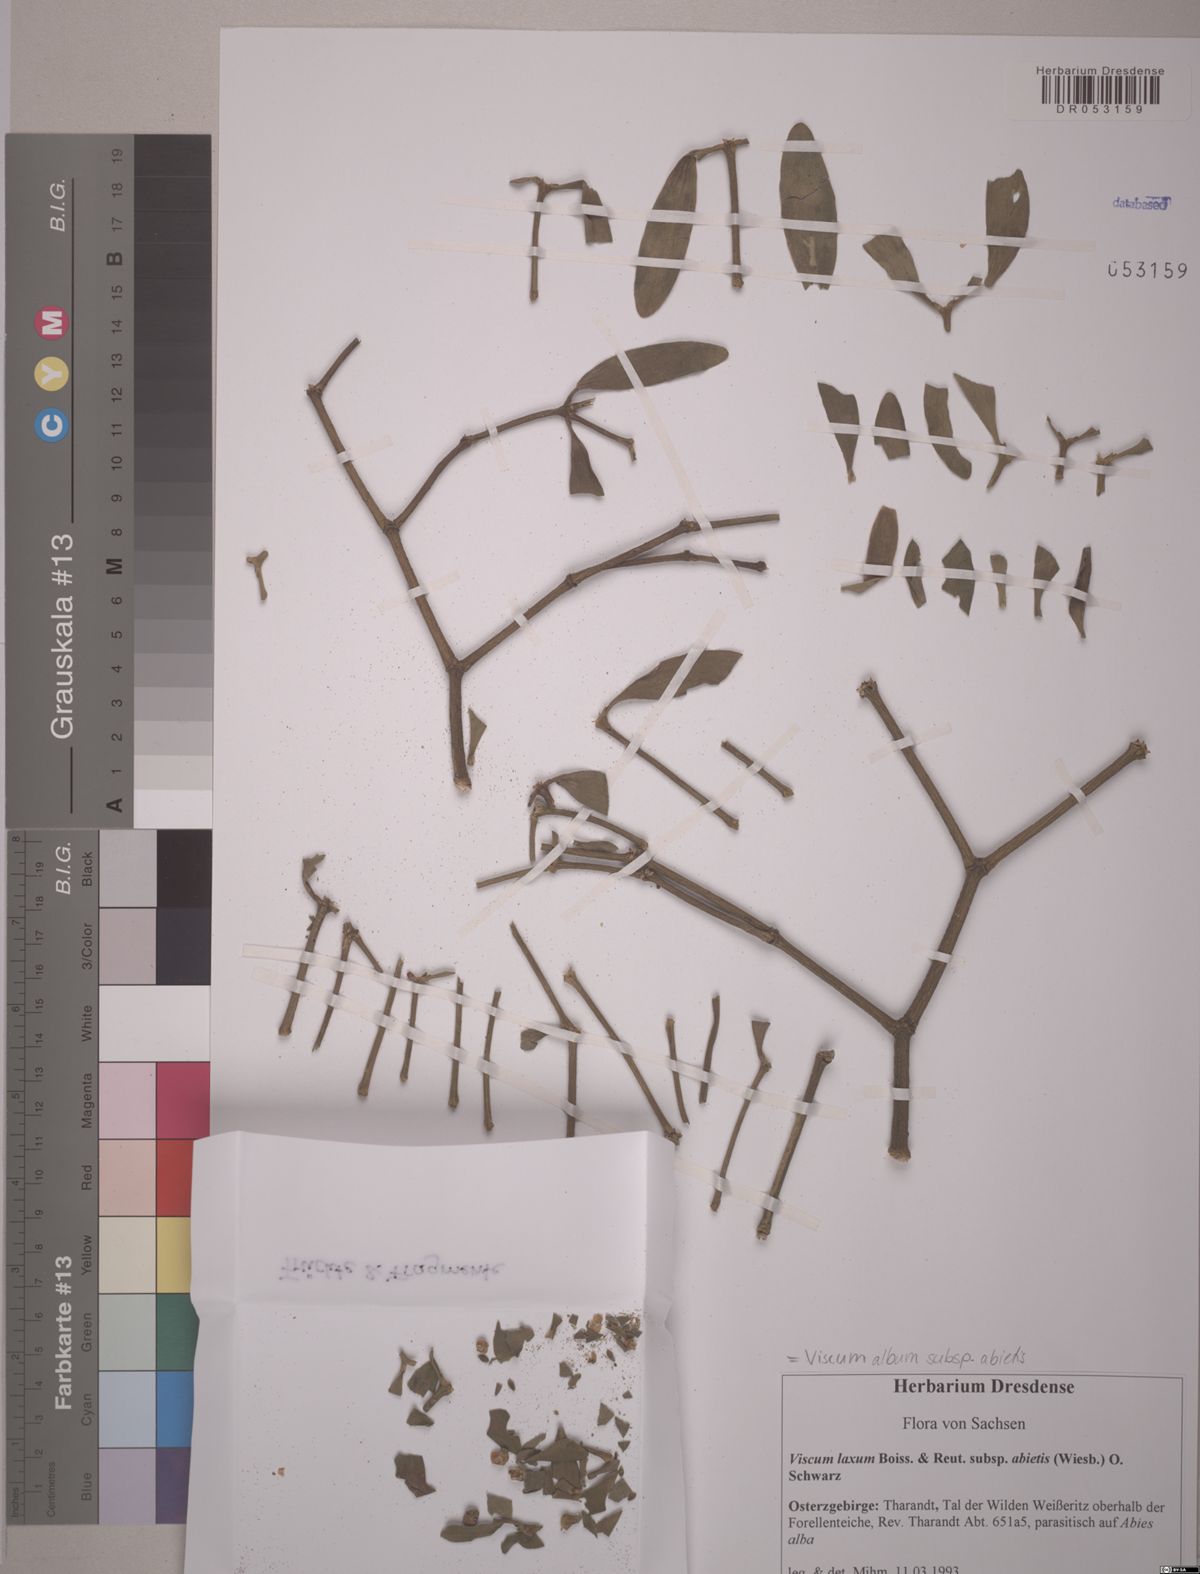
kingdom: Plantae
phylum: Tracheophyta
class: Magnoliopsida
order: Santalales
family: Viscaceae
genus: Viscum
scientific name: Viscum album
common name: Mistletoe
